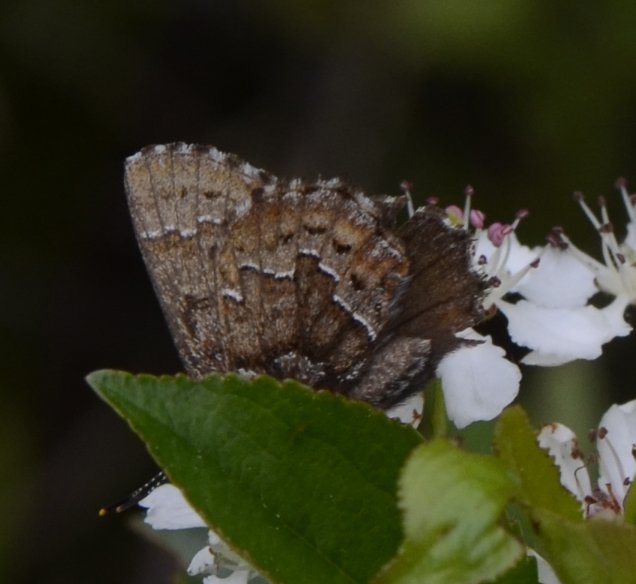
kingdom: Animalia
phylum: Arthropoda
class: Insecta
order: Lepidoptera
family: Lycaenidae
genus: Incisalia
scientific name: Incisalia niphon
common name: Eastern Pine Elfin
